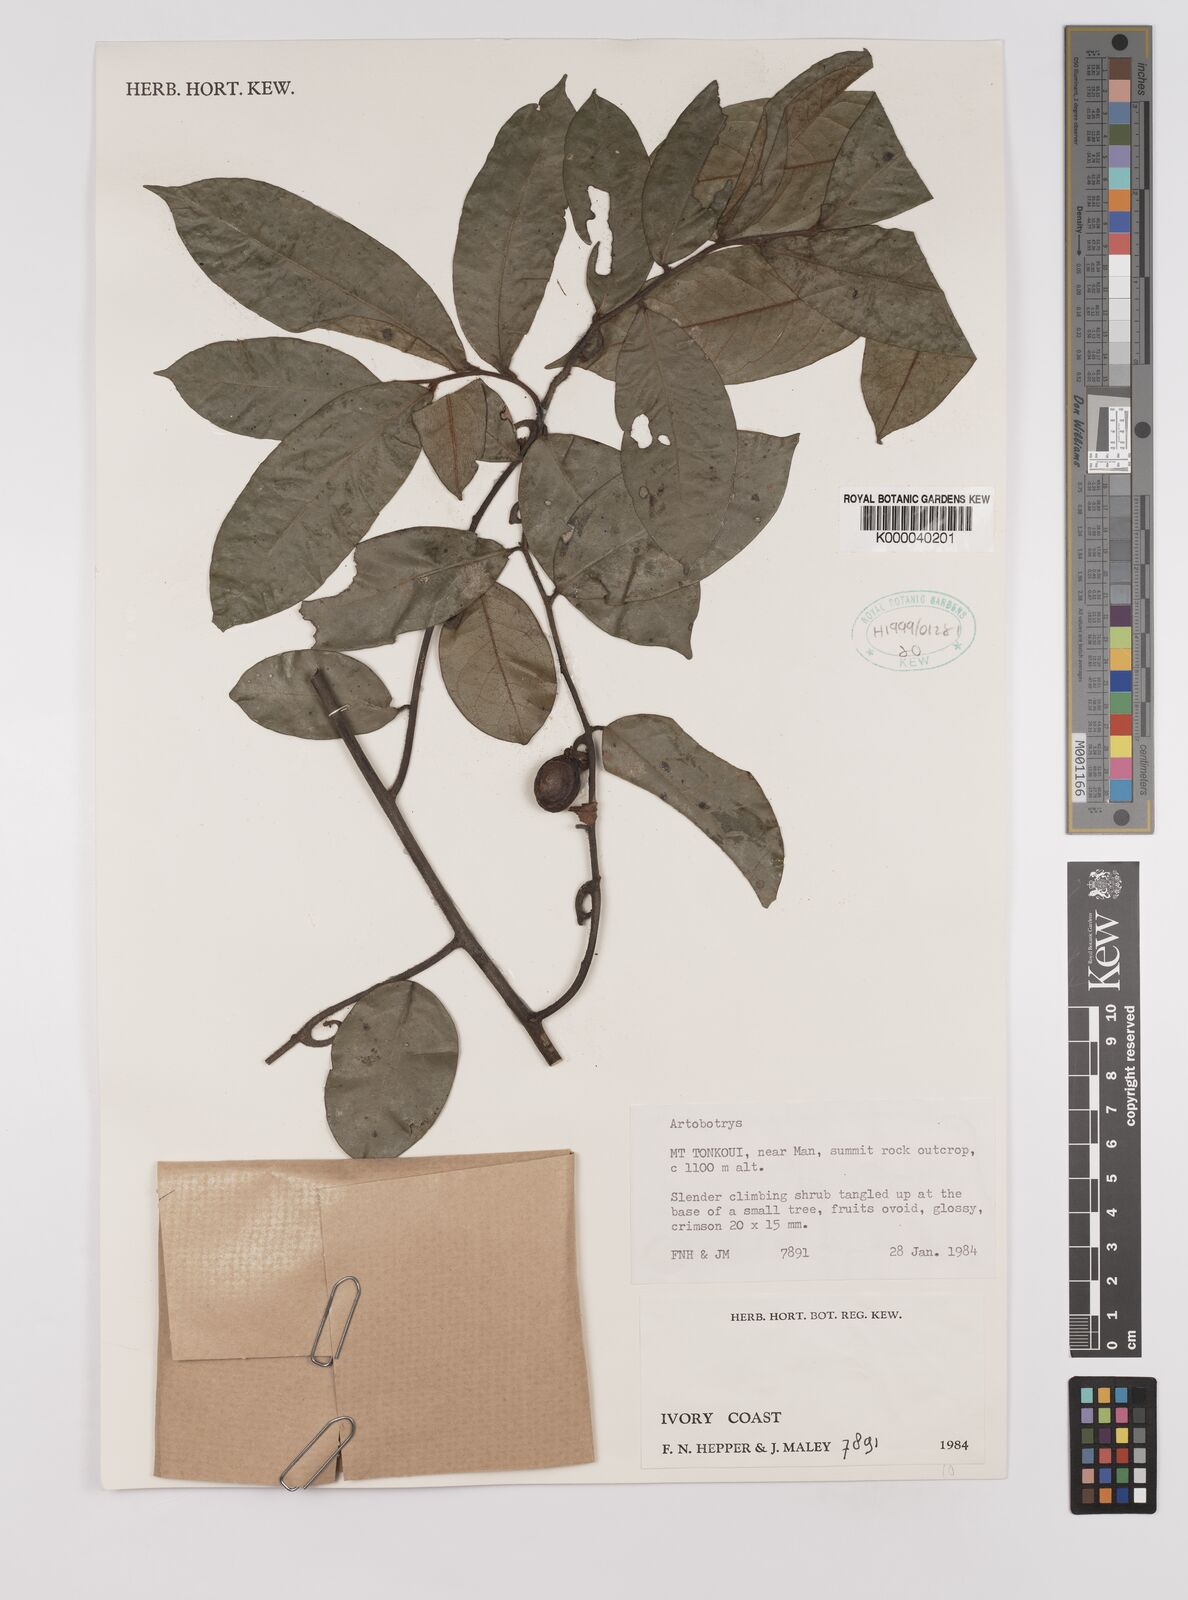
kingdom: Plantae
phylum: Tracheophyta
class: Magnoliopsida
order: Magnoliales
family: Annonaceae
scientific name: Annonaceae
